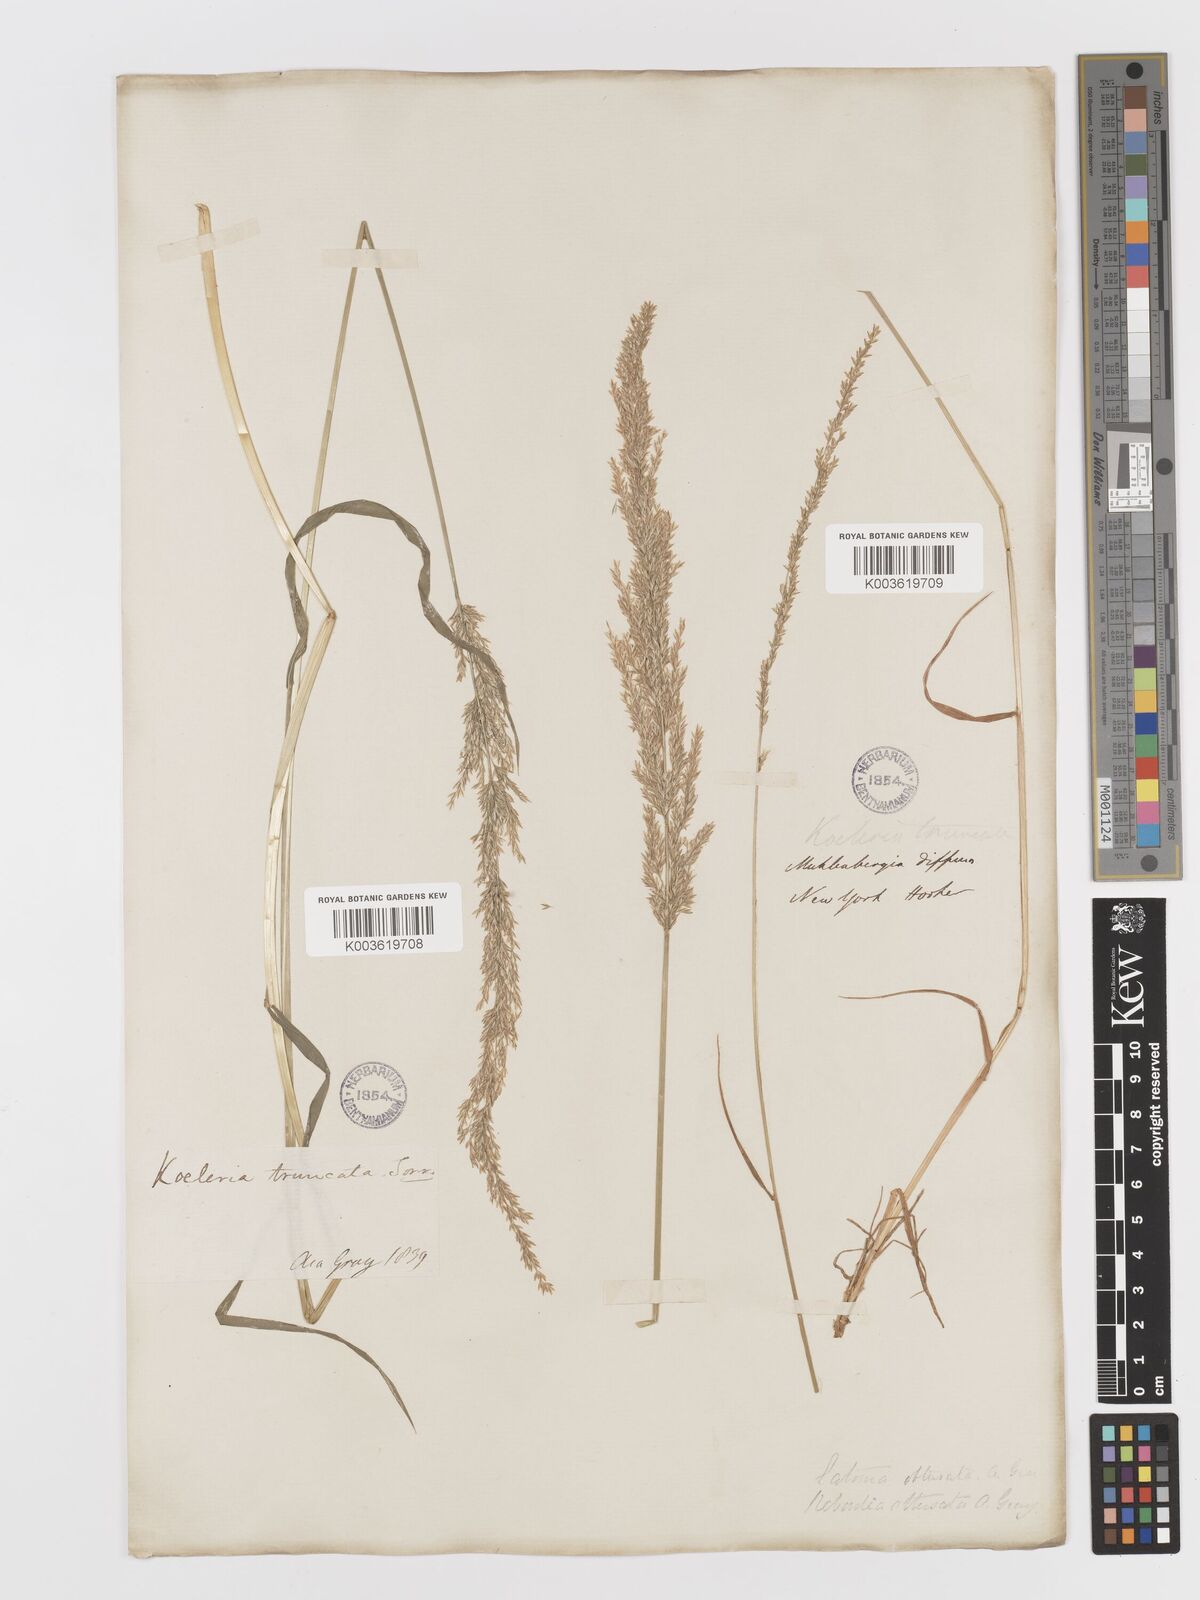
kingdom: Plantae
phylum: Tracheophyta
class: Liliopsida
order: Poales
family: Poaceae
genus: Sphenopholis
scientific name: Sphenopholis obtusata
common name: Prairie grass
